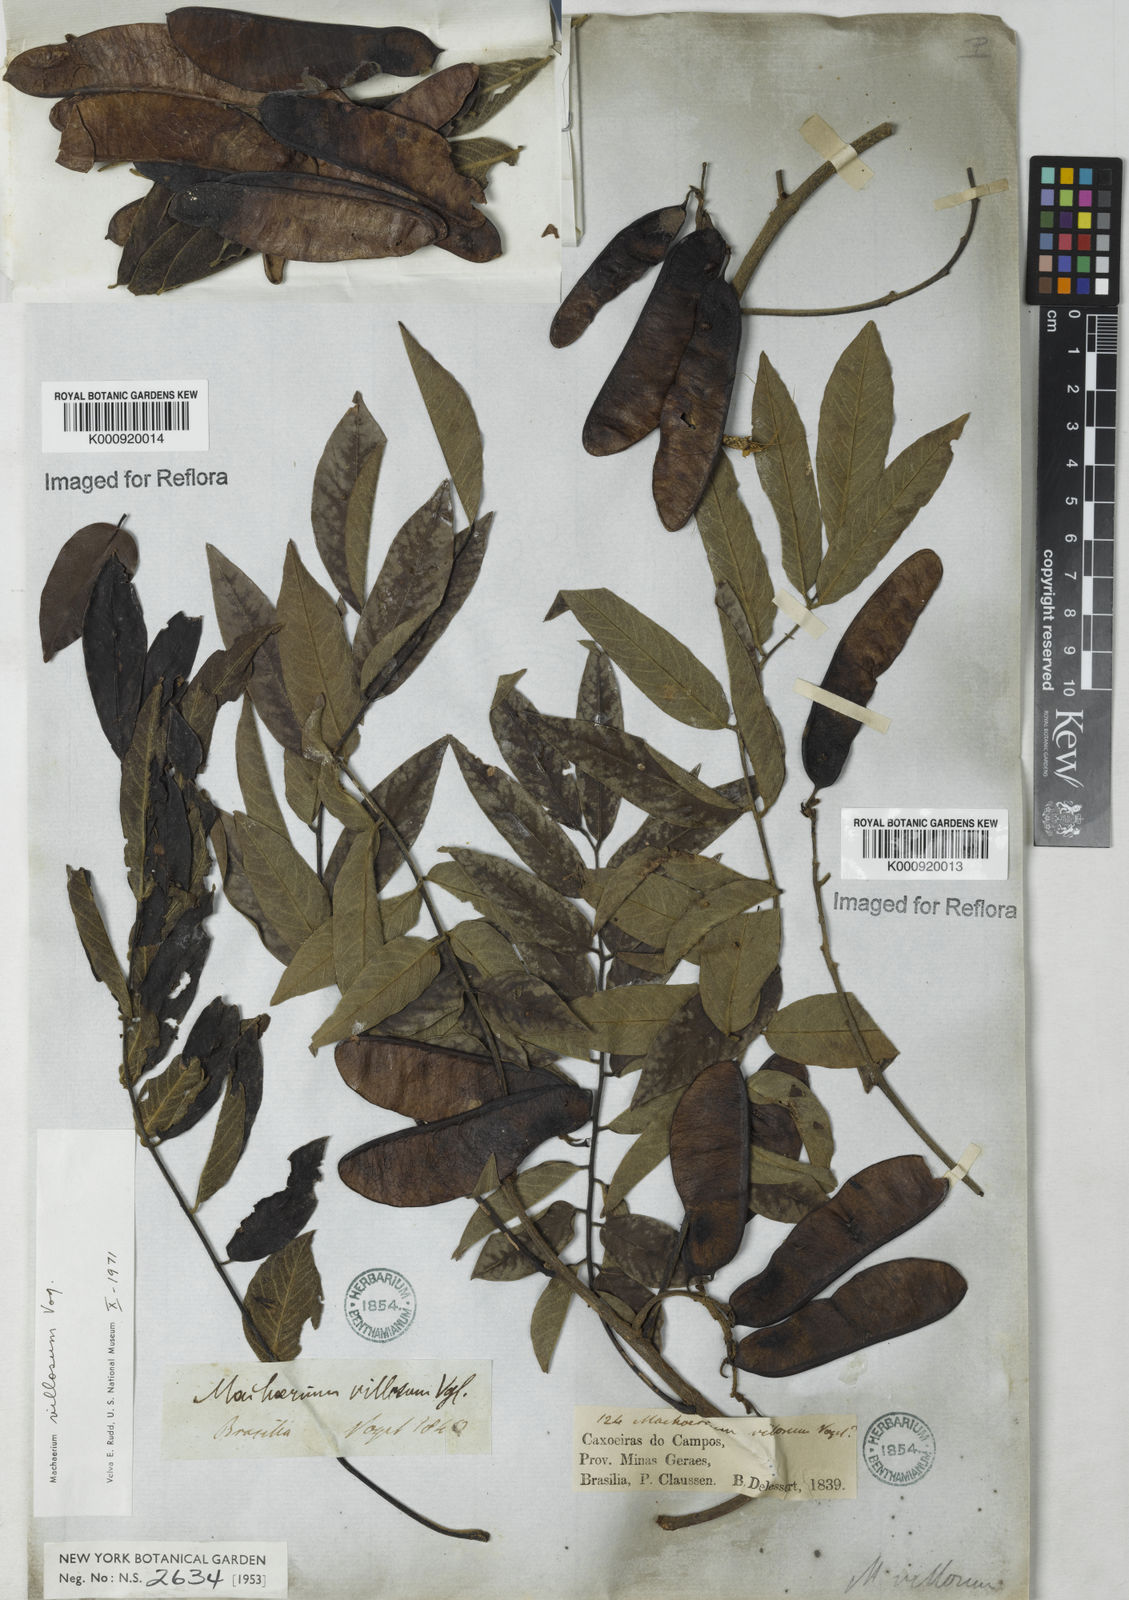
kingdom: Plantae
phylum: Tracheophyta
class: Magnoliopsida
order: Fabales
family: Fabaceae
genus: Machaerium
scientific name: Machaerium villosum
